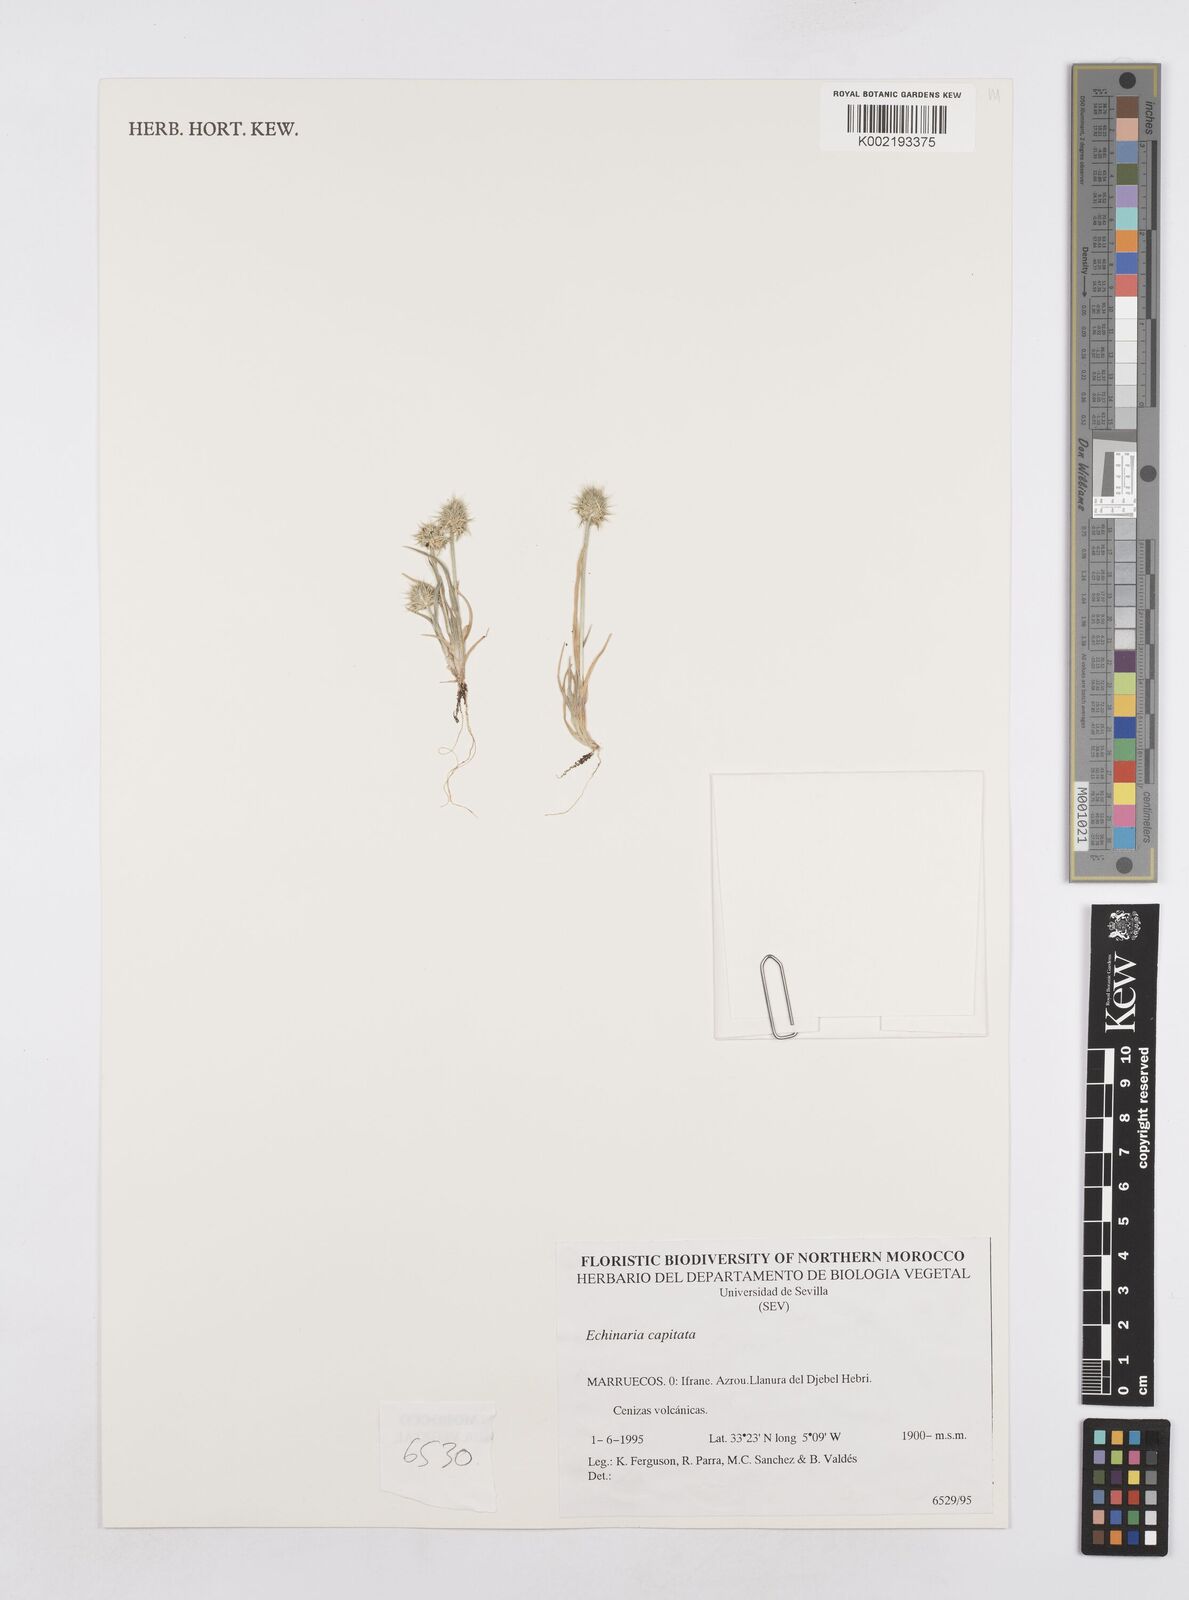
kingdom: Plantae
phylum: Tracheophyta
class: Liliopsida
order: Poales
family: Poaceae
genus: Echinaria
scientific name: Echinaria capitata
